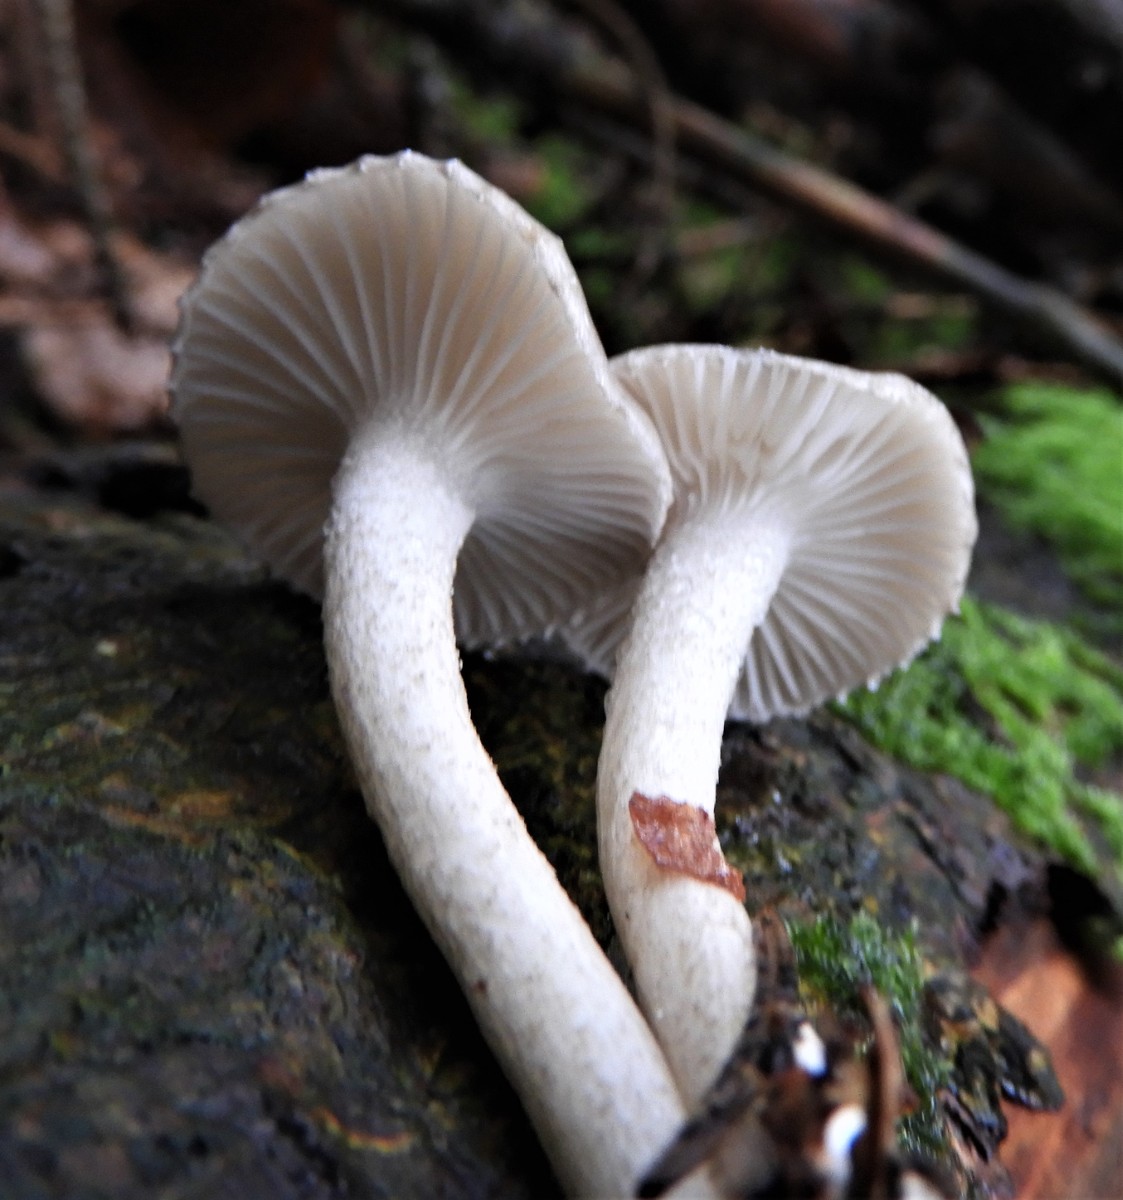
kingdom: Fungi
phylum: Basidiomycota
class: Agaricomycetes
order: Agaricales
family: Hygrophoraceae
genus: Hygrophorus
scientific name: Hygrophorus pustulatus
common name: mørkprikket sneglehat
